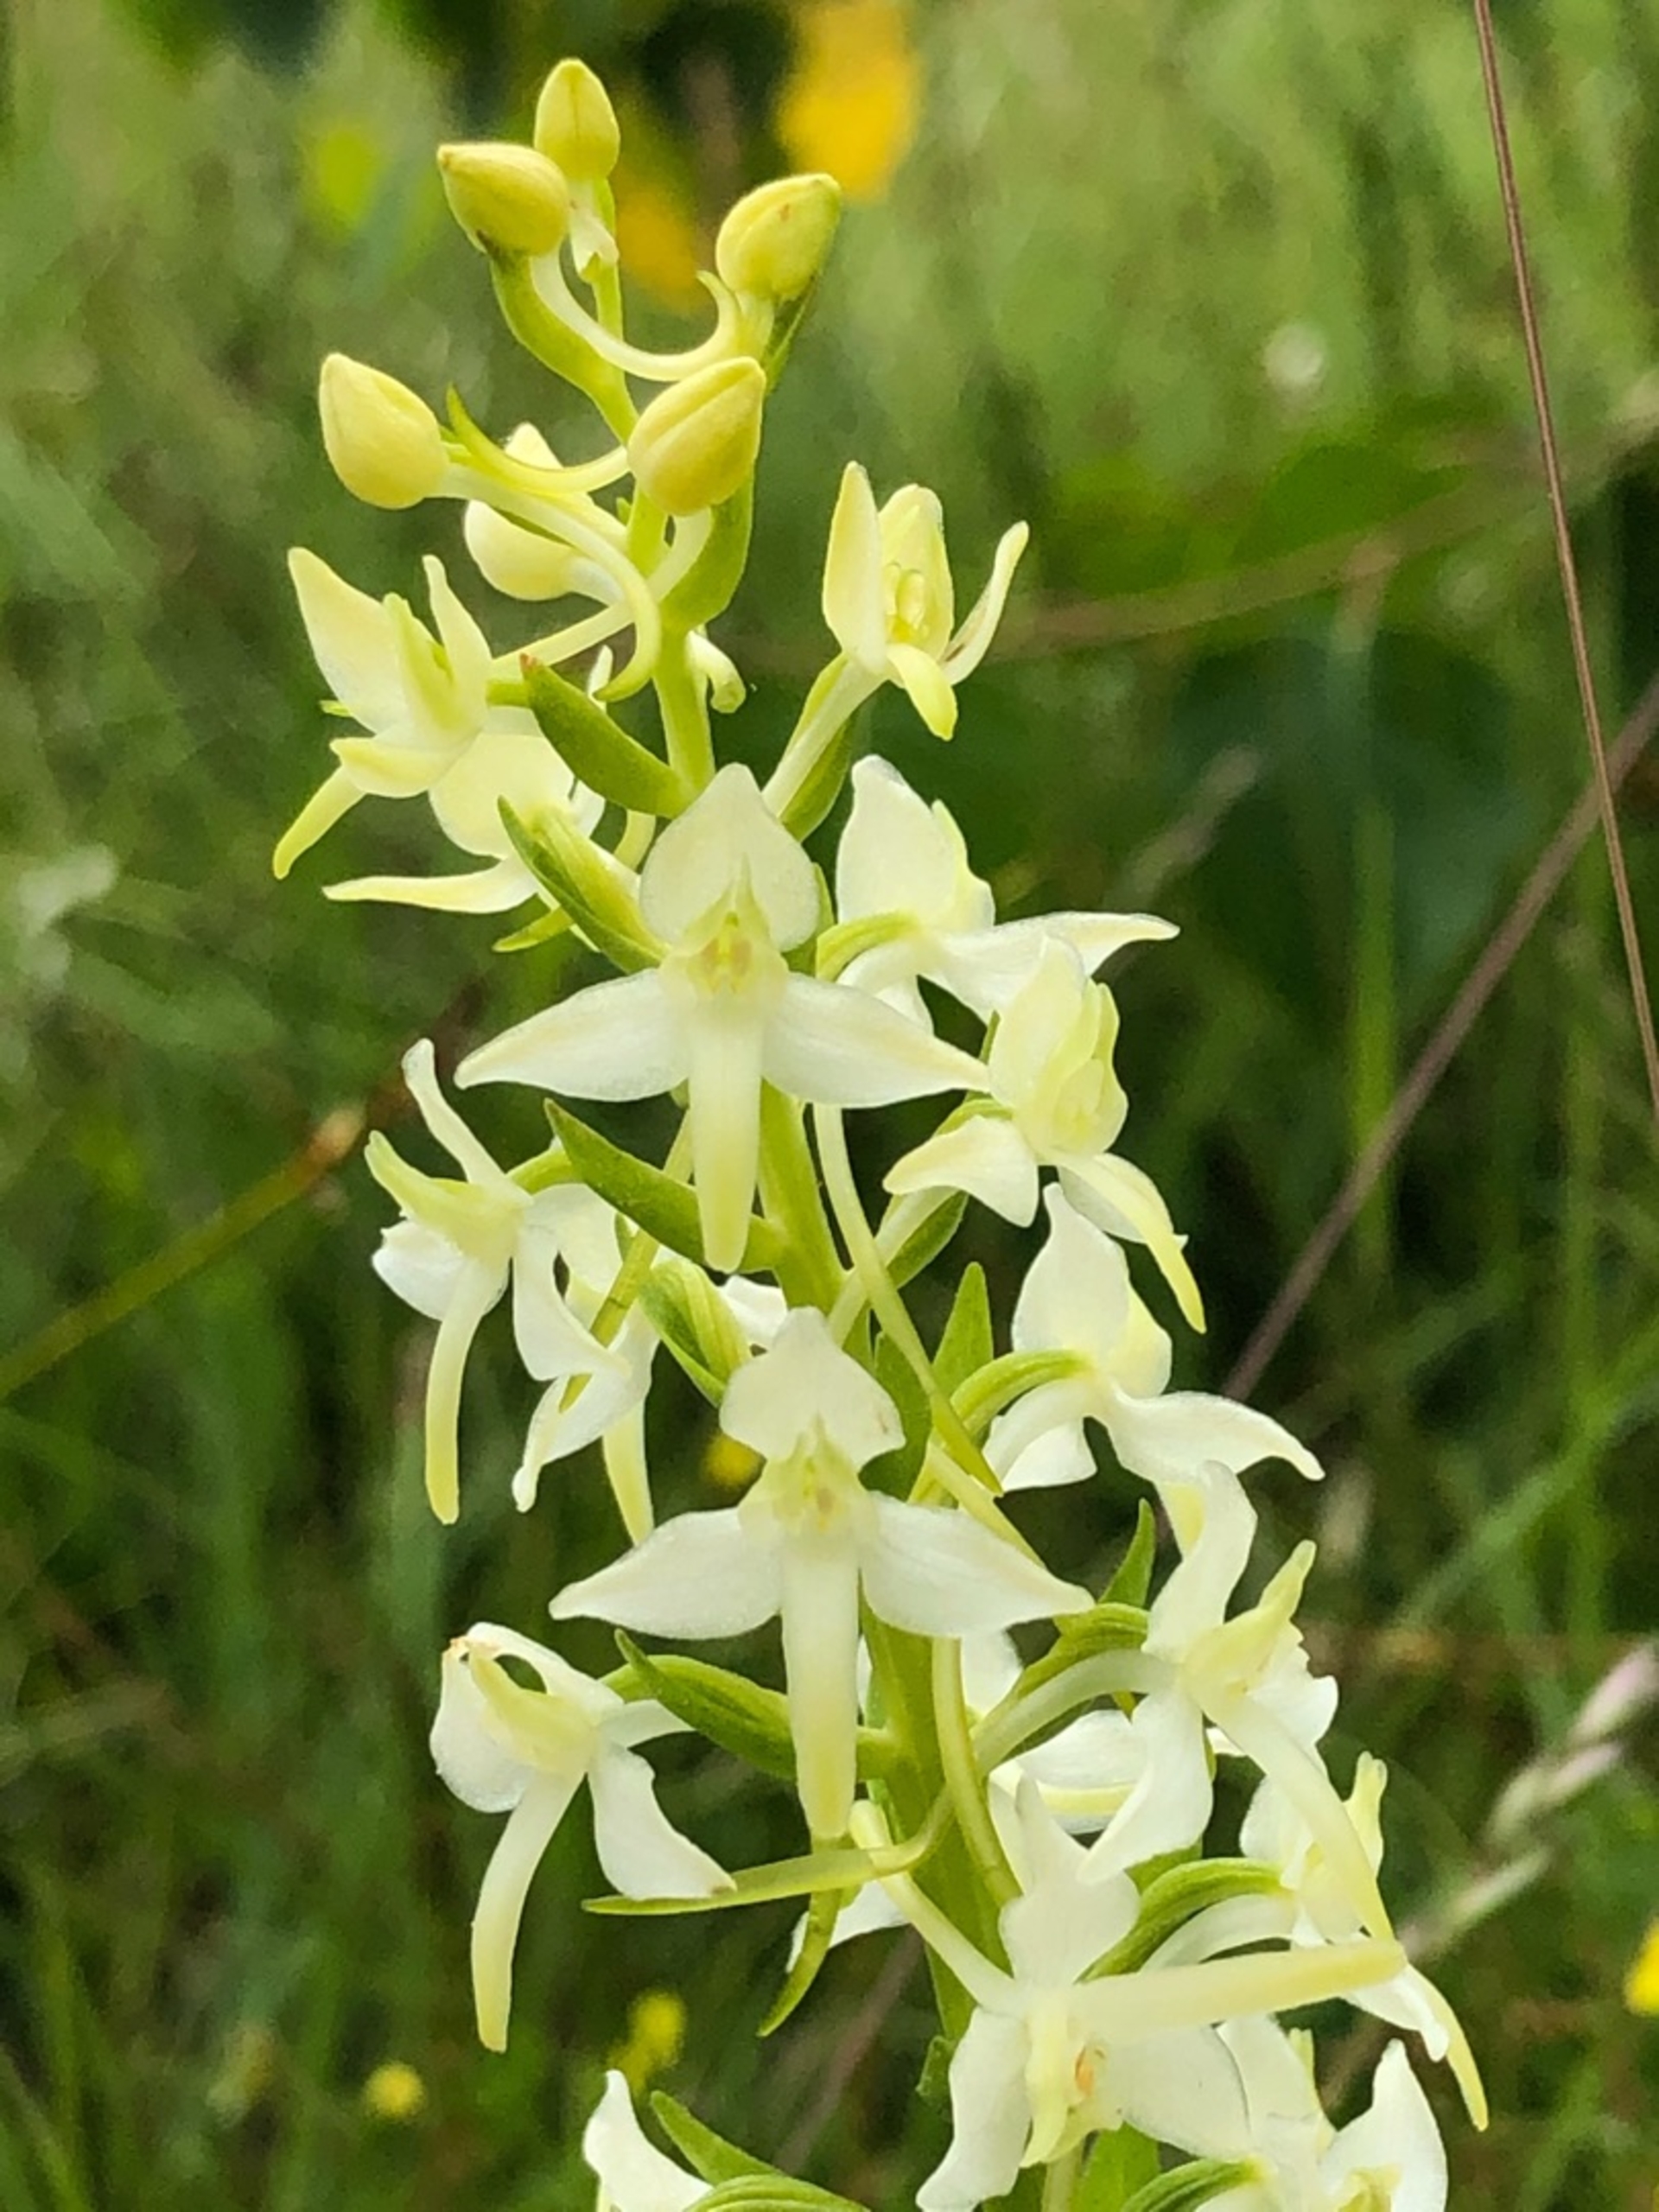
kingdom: Plantae
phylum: Tracheophyta
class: Liliopsida
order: Asparagales
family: Orchidaceae
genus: Platanthera
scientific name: Platanthera bifolia
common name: Bakke-gøgelilje
